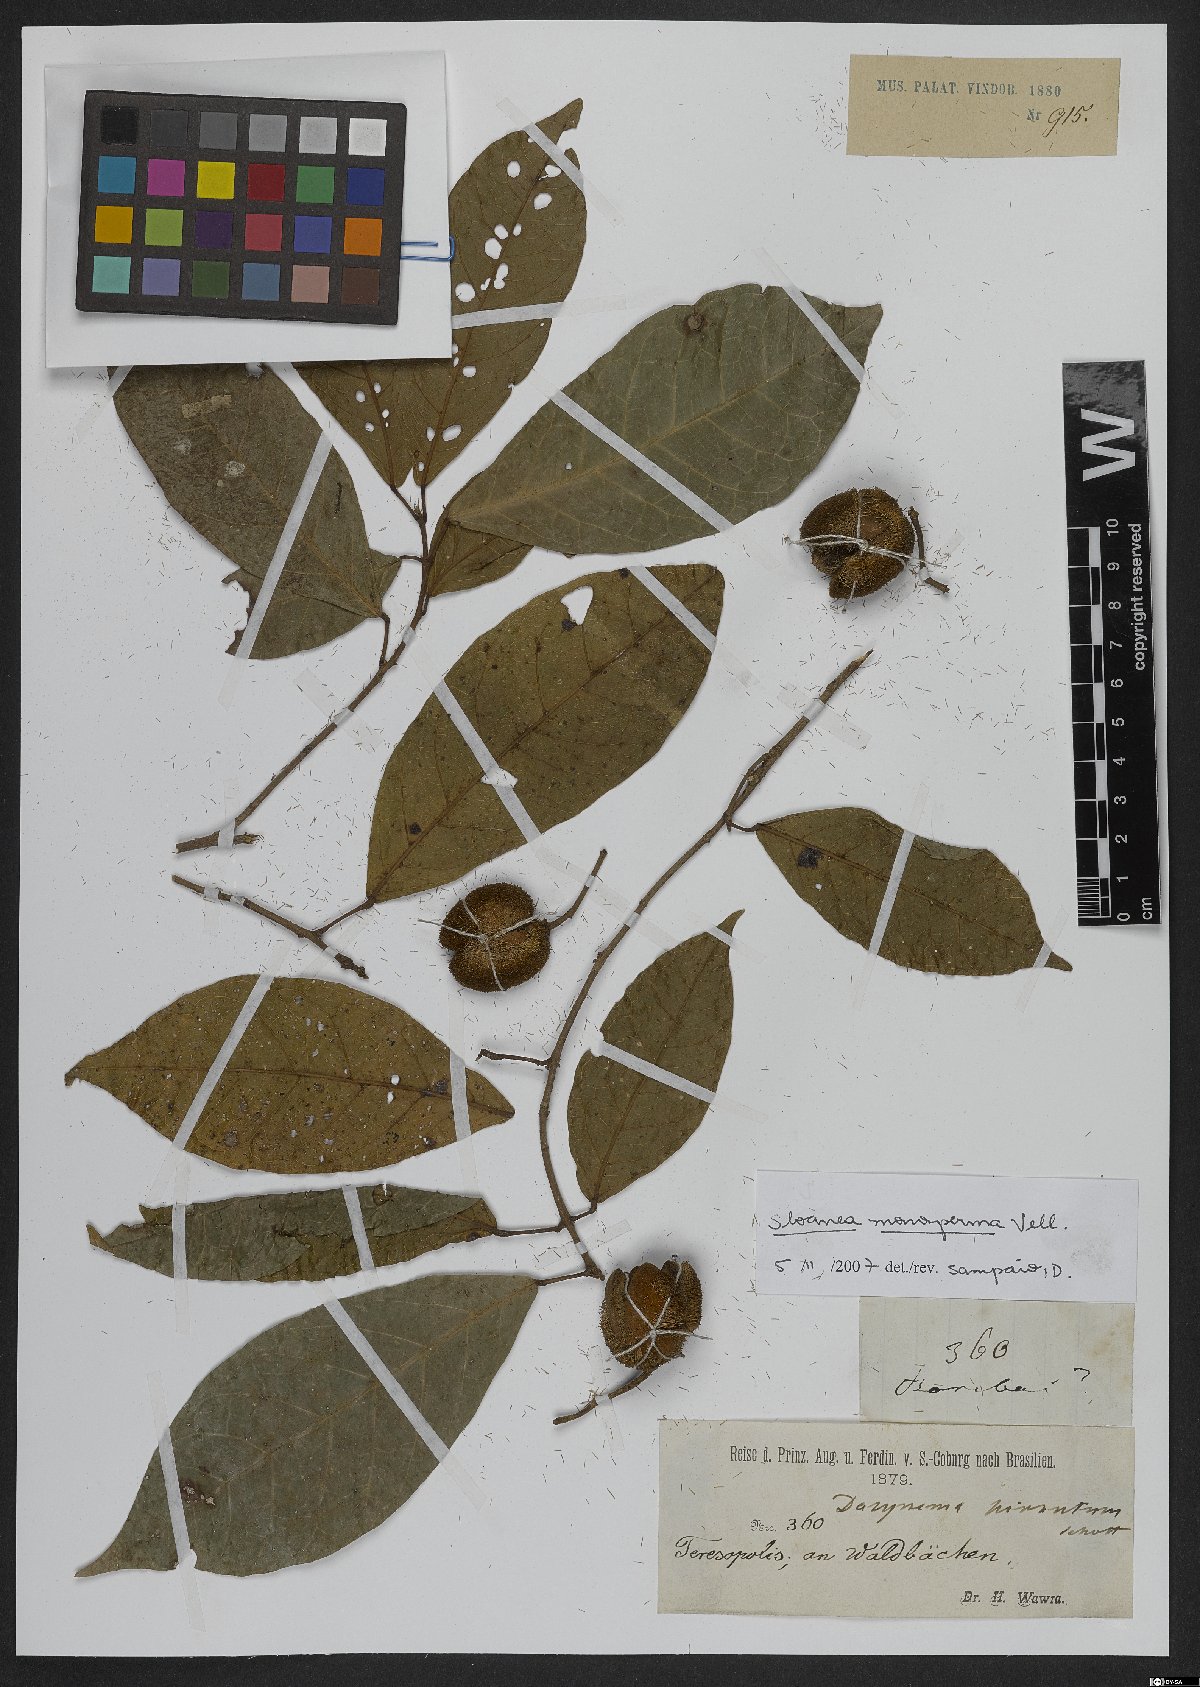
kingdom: Plantae
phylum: Tracheophyta
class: Magnoliopsida
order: Oxalidales
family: Elaeocarpaceae
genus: Sloanea
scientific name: Sloanea hirsuta
